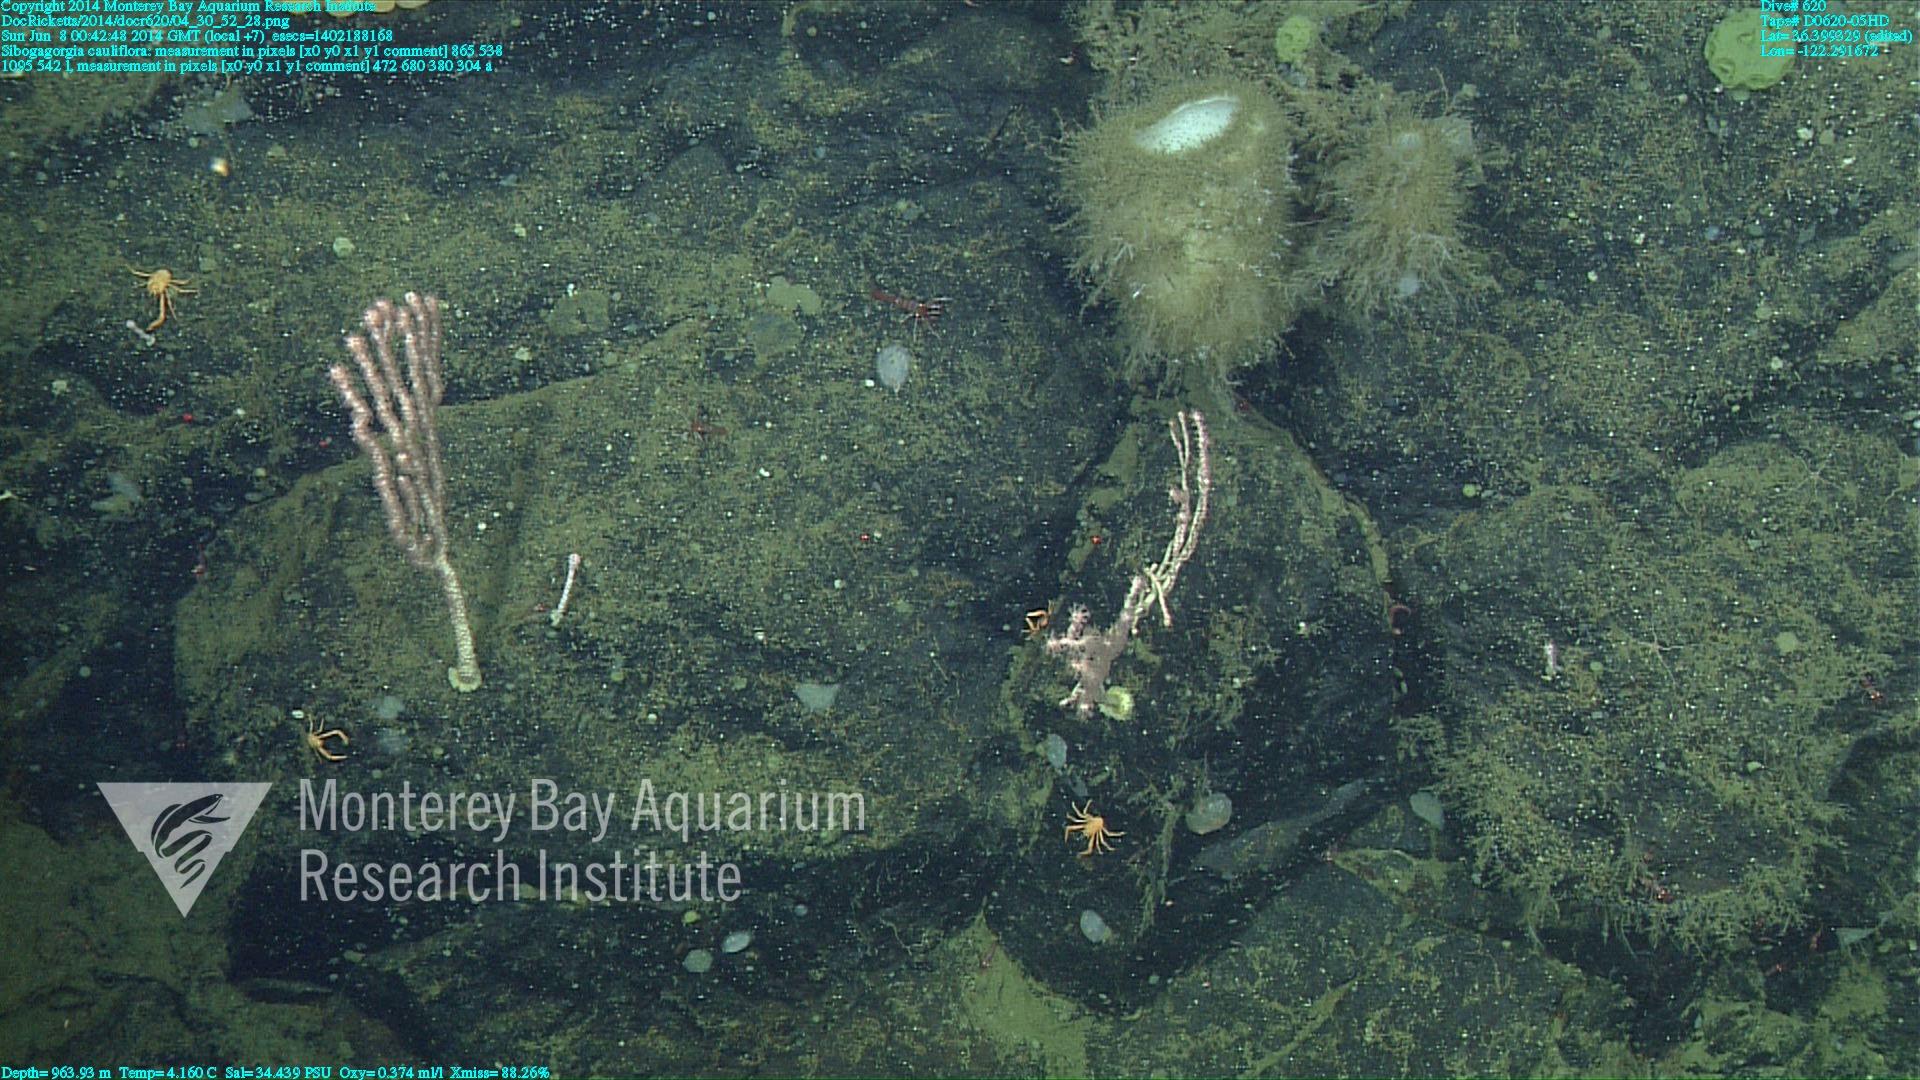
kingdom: Animalia
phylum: Cnidaria
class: Anthozoa
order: Scleralcyonacea
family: Coralliidae
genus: Sibogagorgia
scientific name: Sibogagorgia cauliflora
